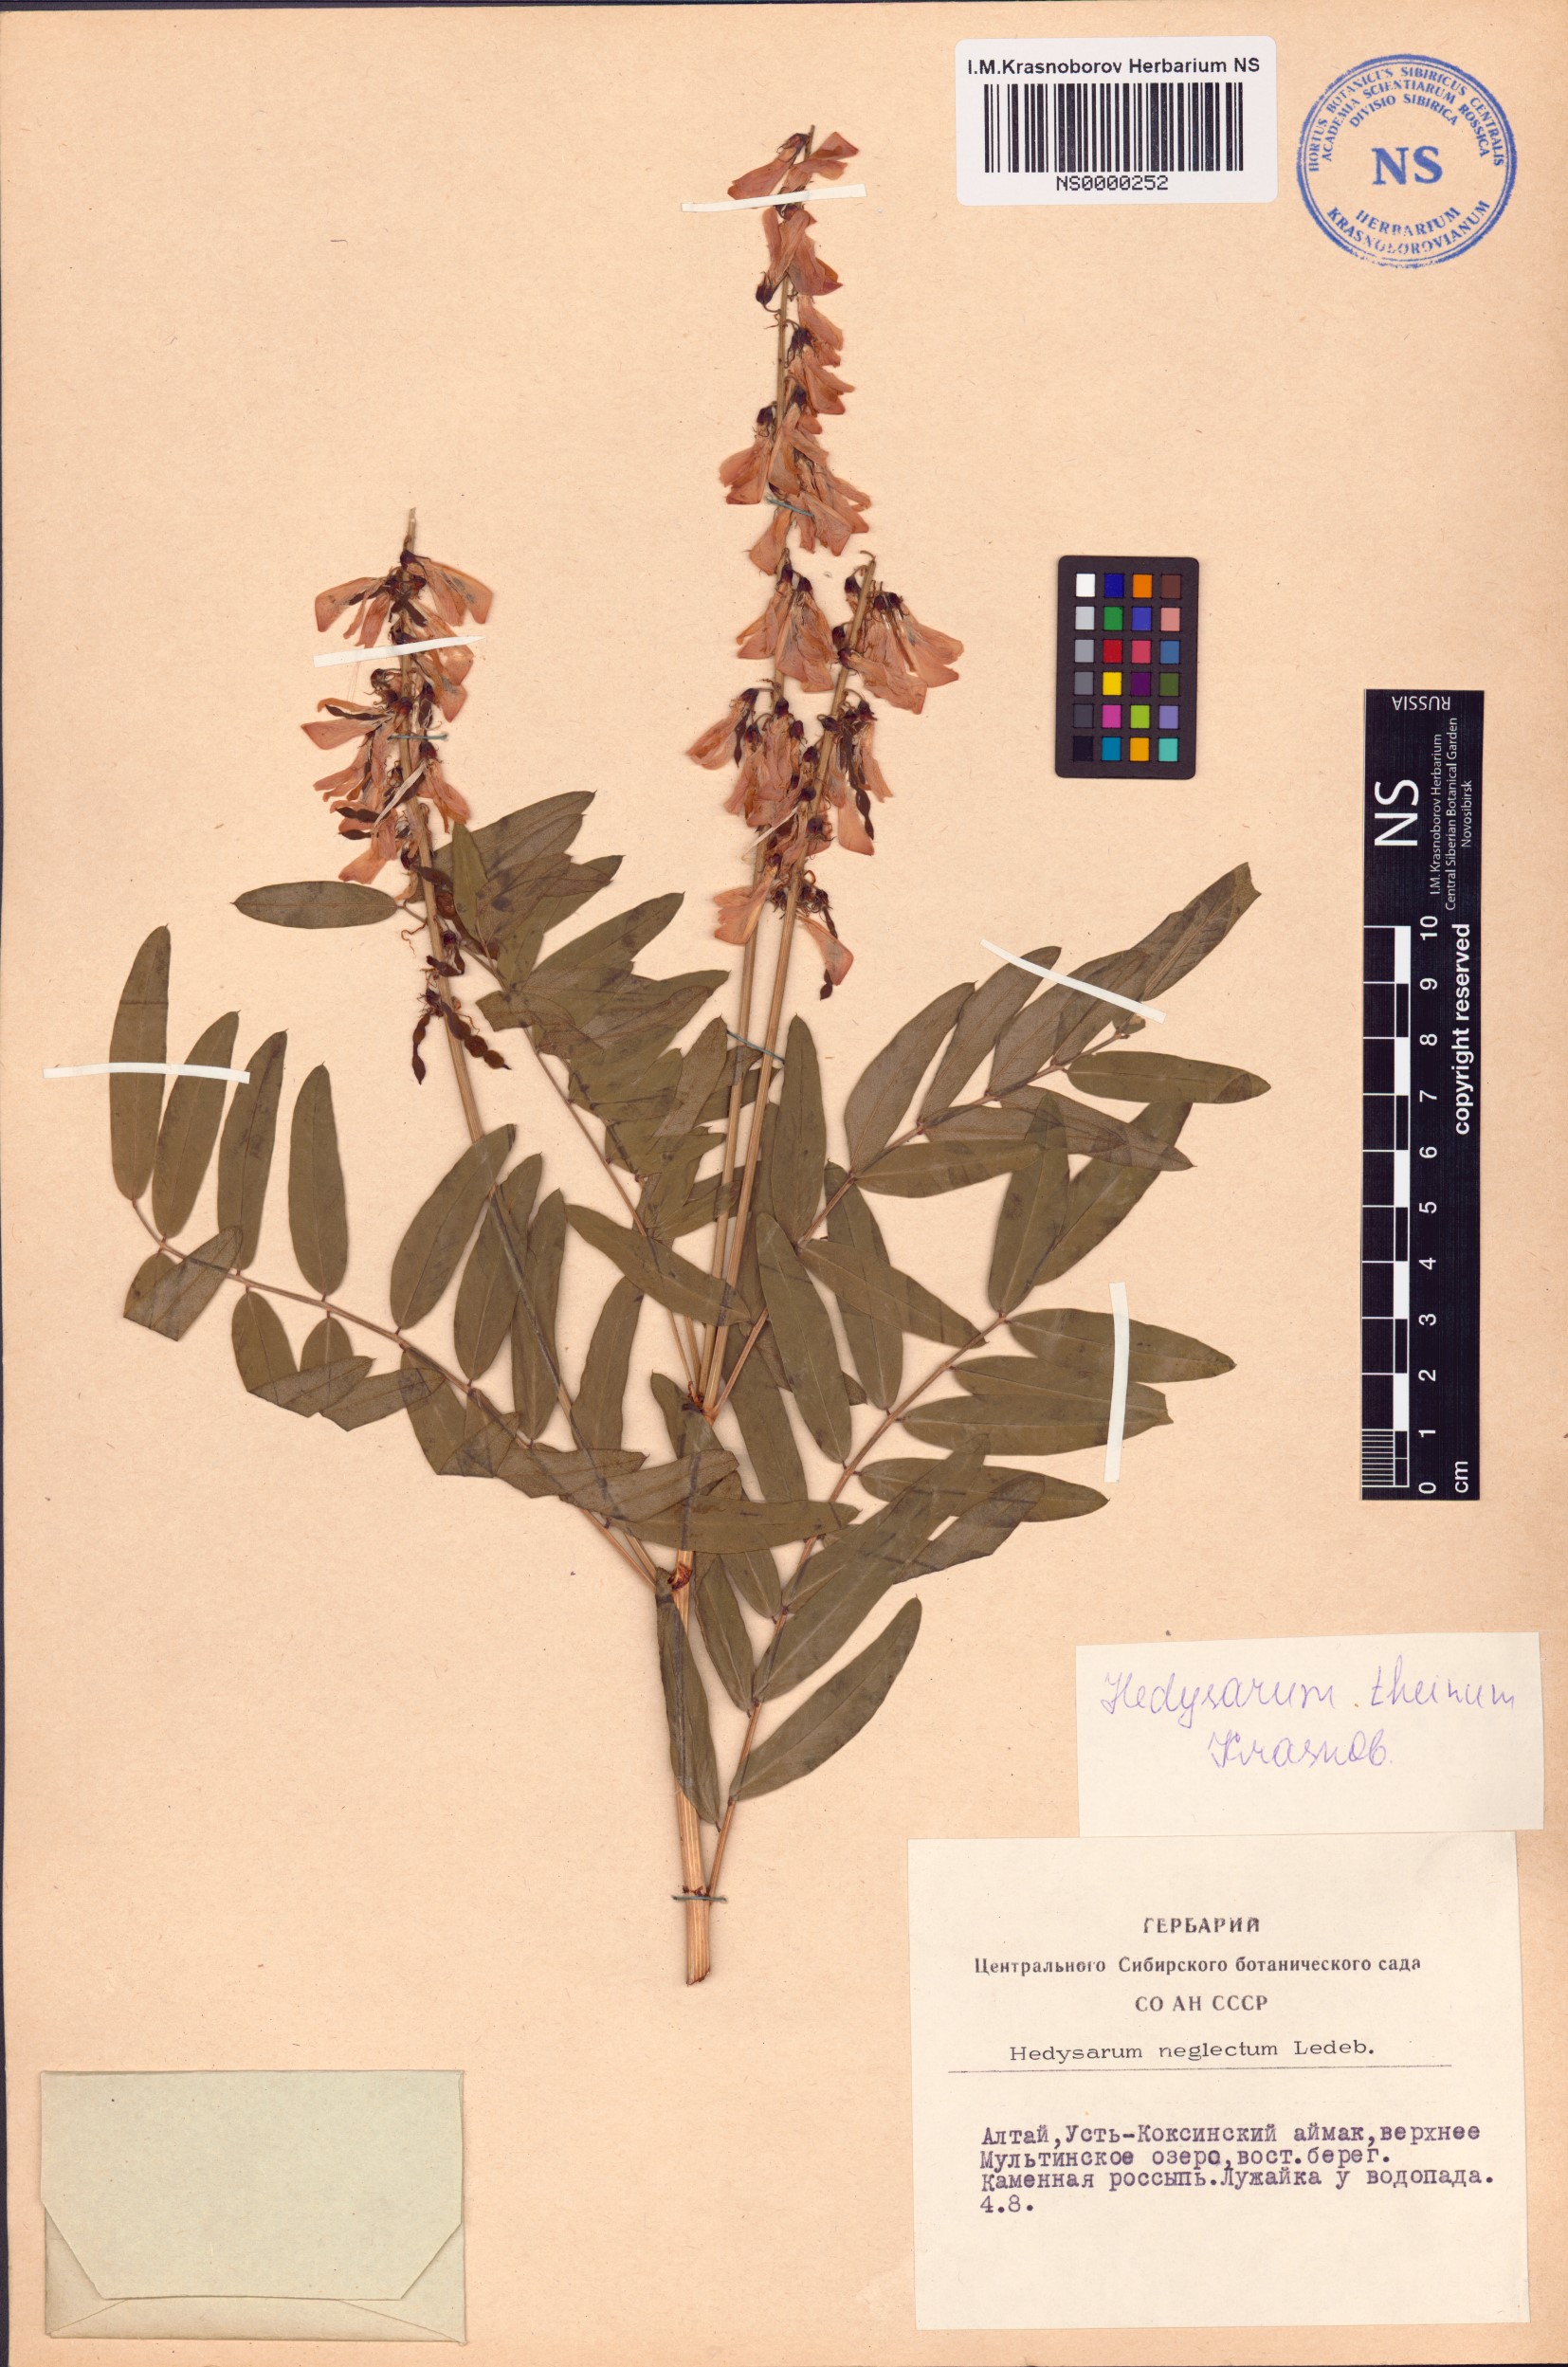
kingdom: Plantae
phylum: Tracheophyta
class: Magnoliopsida
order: Fabales
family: Fabaceae
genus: Hedysarum
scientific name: Hedysarum theinum
